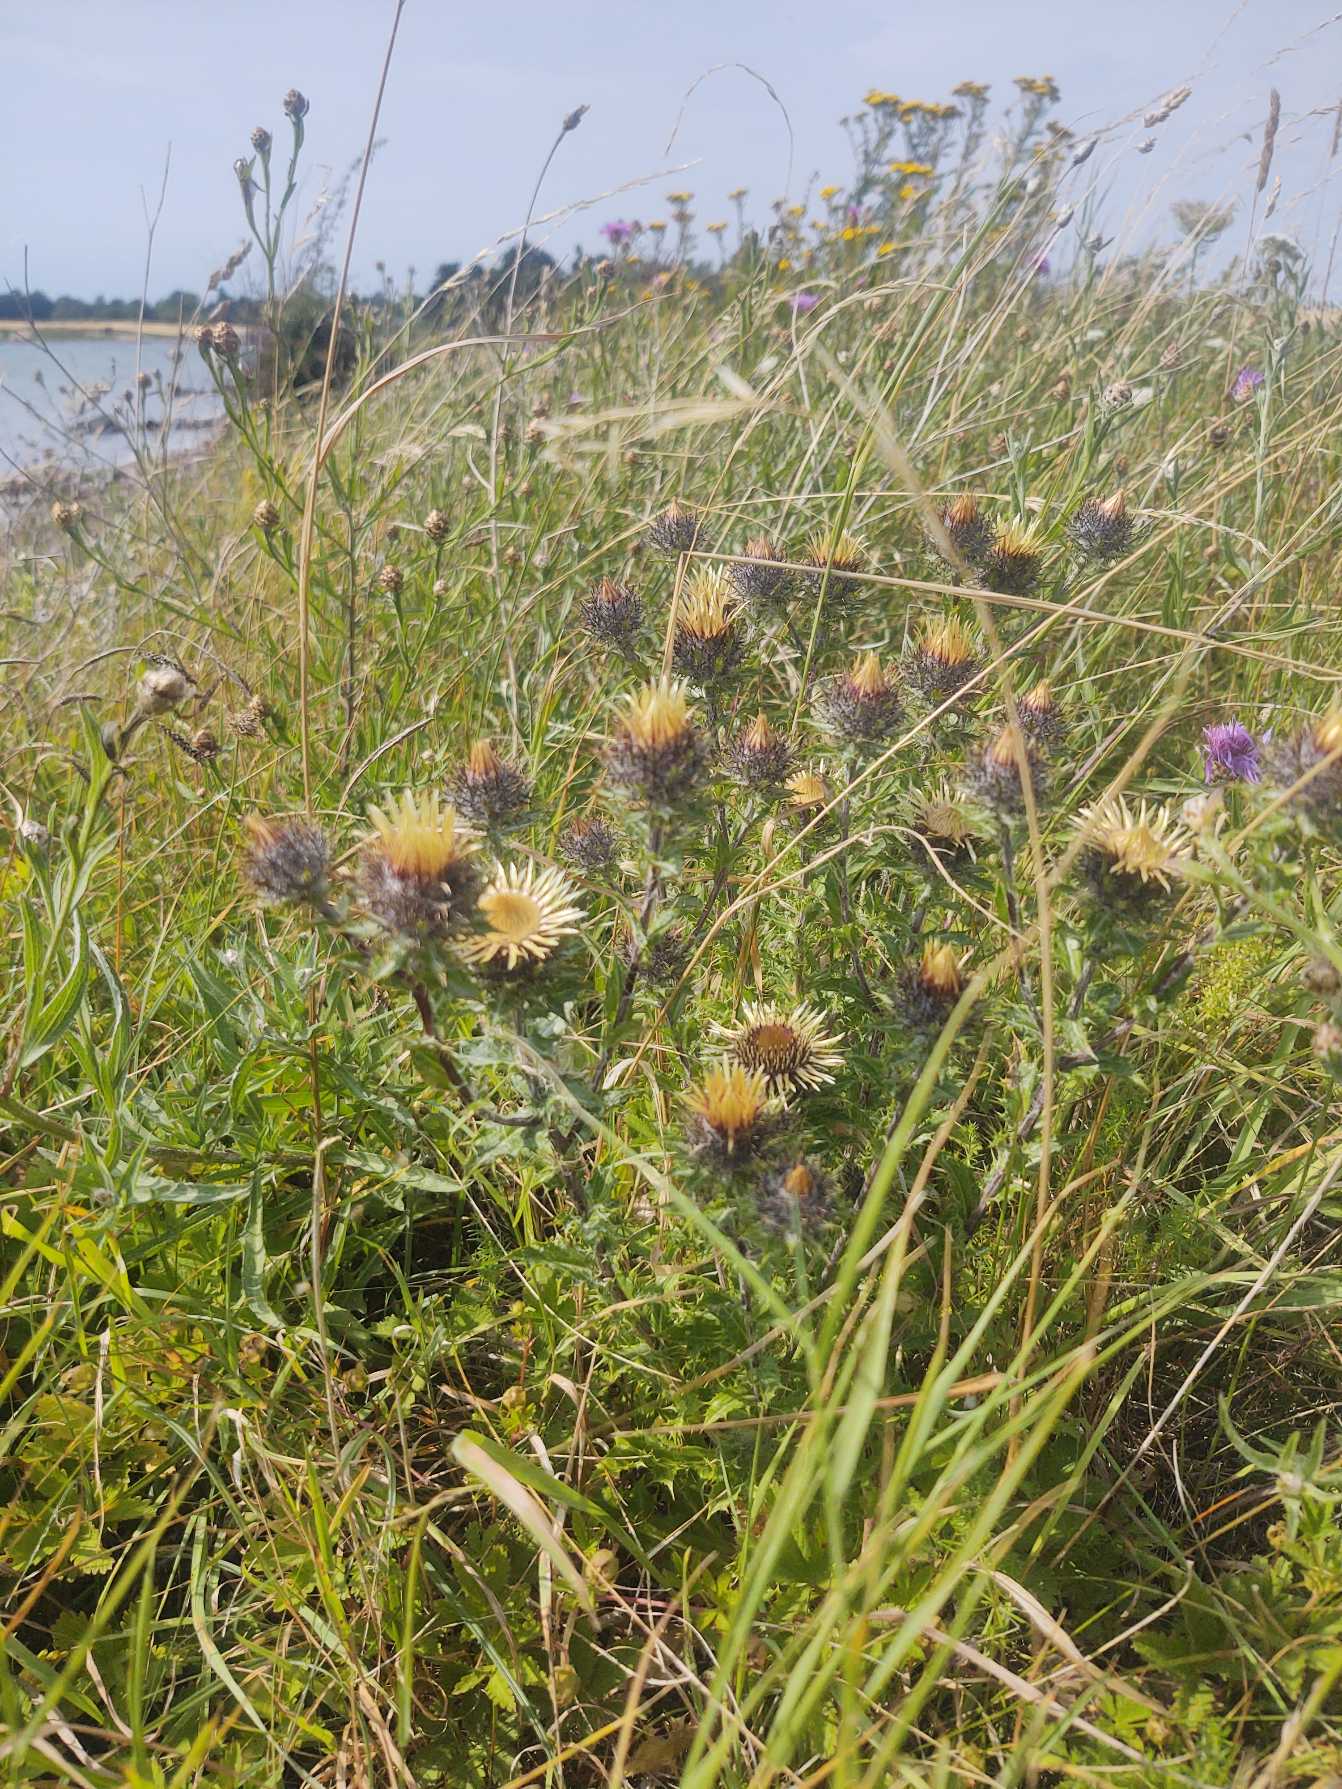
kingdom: Plantae
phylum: Tracheophyta
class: Magnoliopsida
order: Asterales
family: Asteraceae
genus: Carlina
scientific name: Carlina vulgaris
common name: Bakketidsel (underart)
